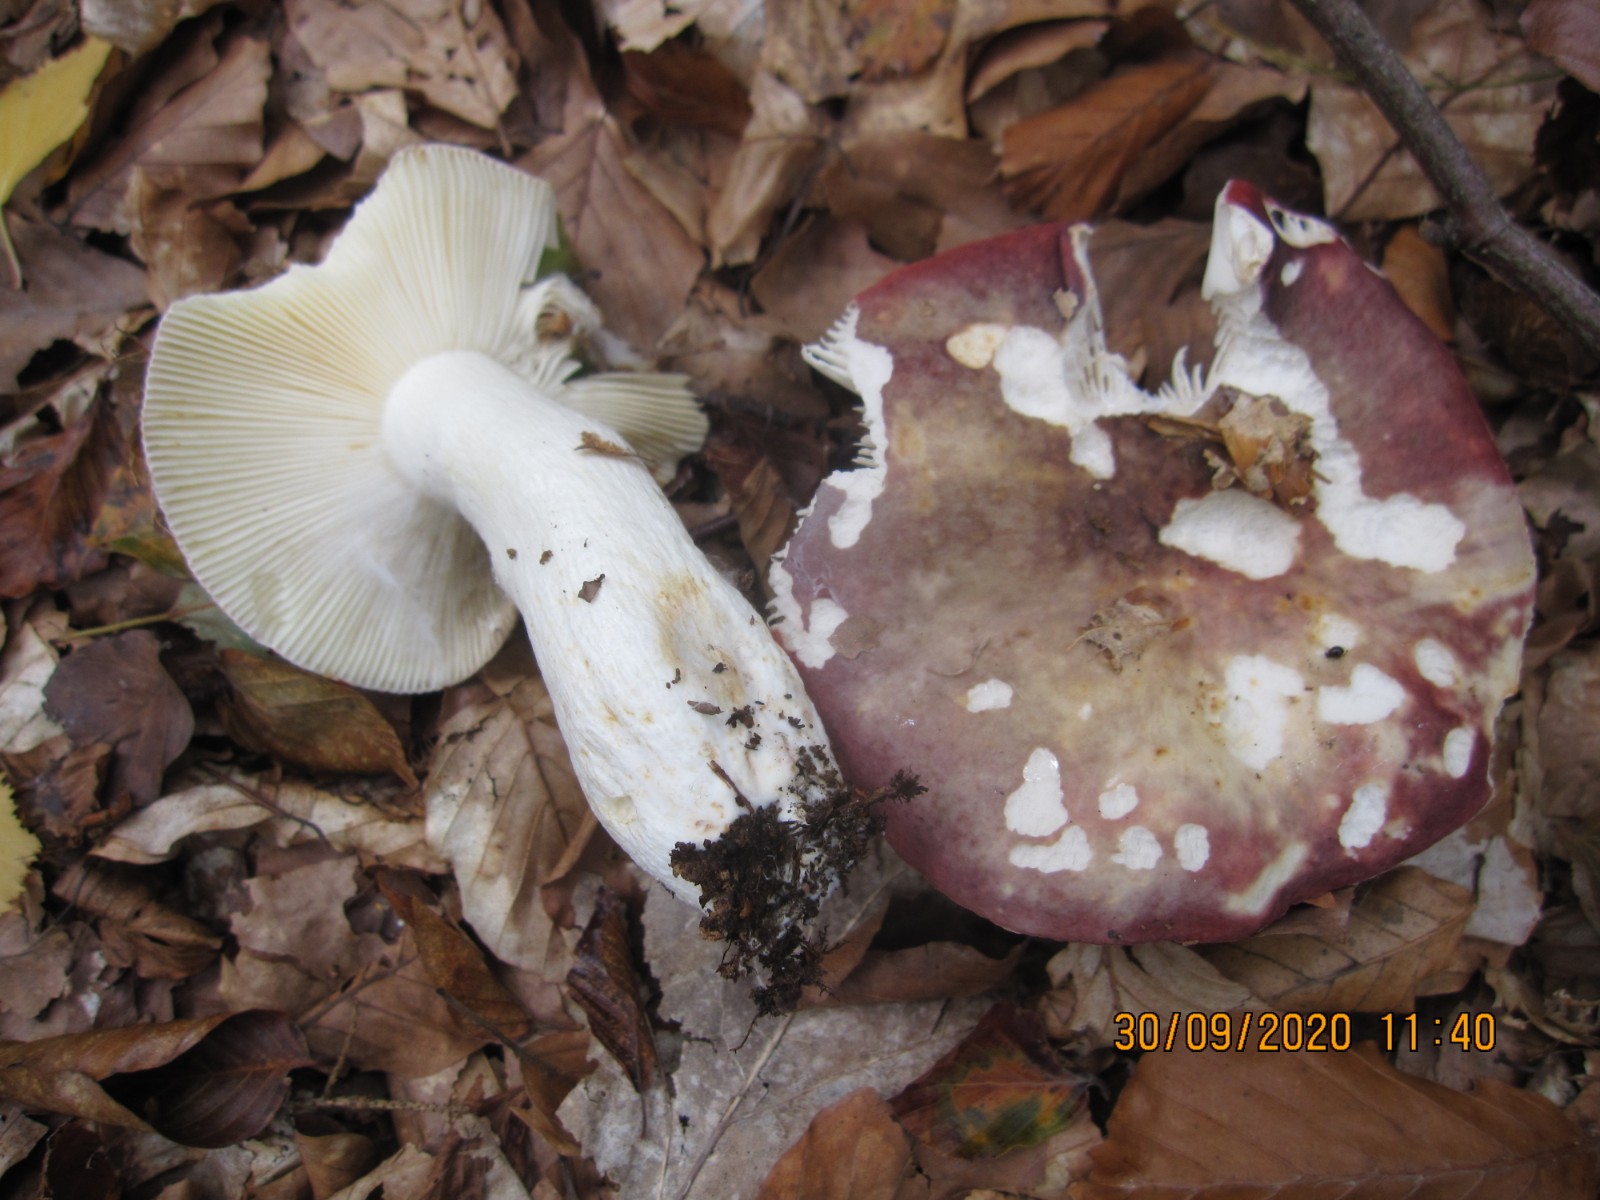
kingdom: Fungi
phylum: Basidiomycota
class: Agaricomycetes
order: Russulales
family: Russulaceae
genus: Russula
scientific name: Russula atropurpurea
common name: purpurbroget skørhat
